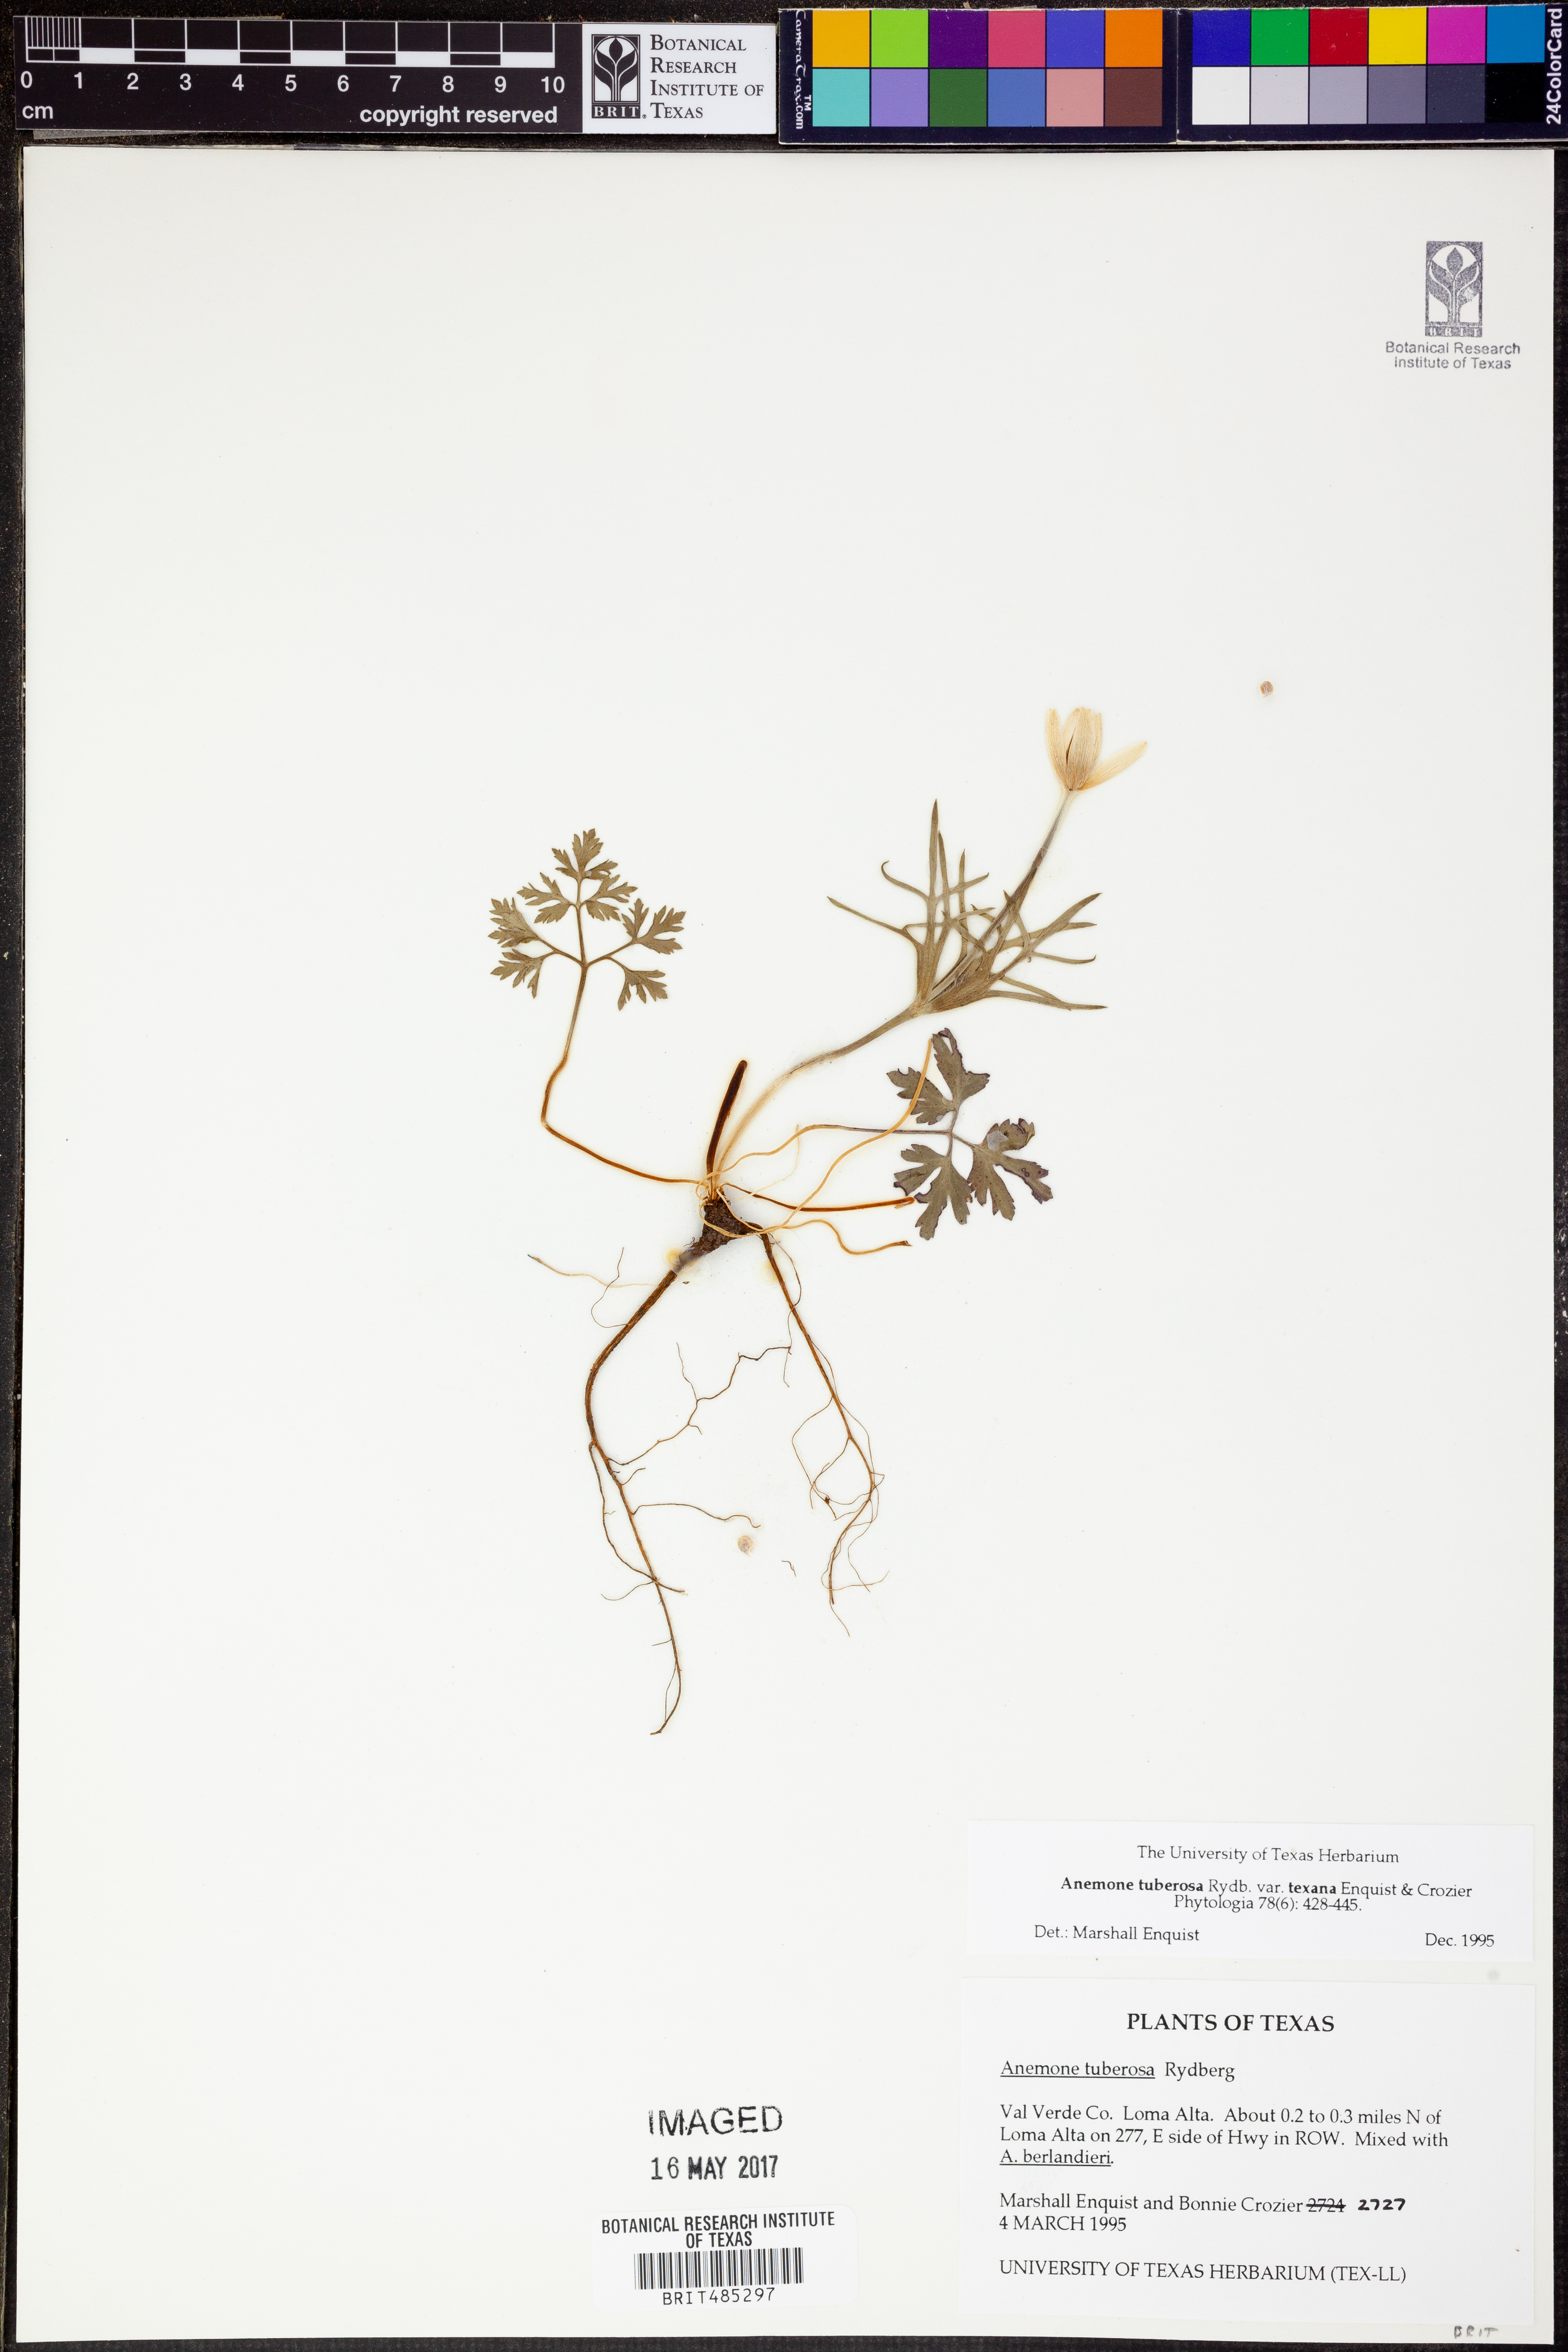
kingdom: Plantae
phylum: Tracheophyta
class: Magnoliopsida
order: Ranunculales
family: Ranunculaceae
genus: Anemone
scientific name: Anemone tuberosa
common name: Desert anemone
